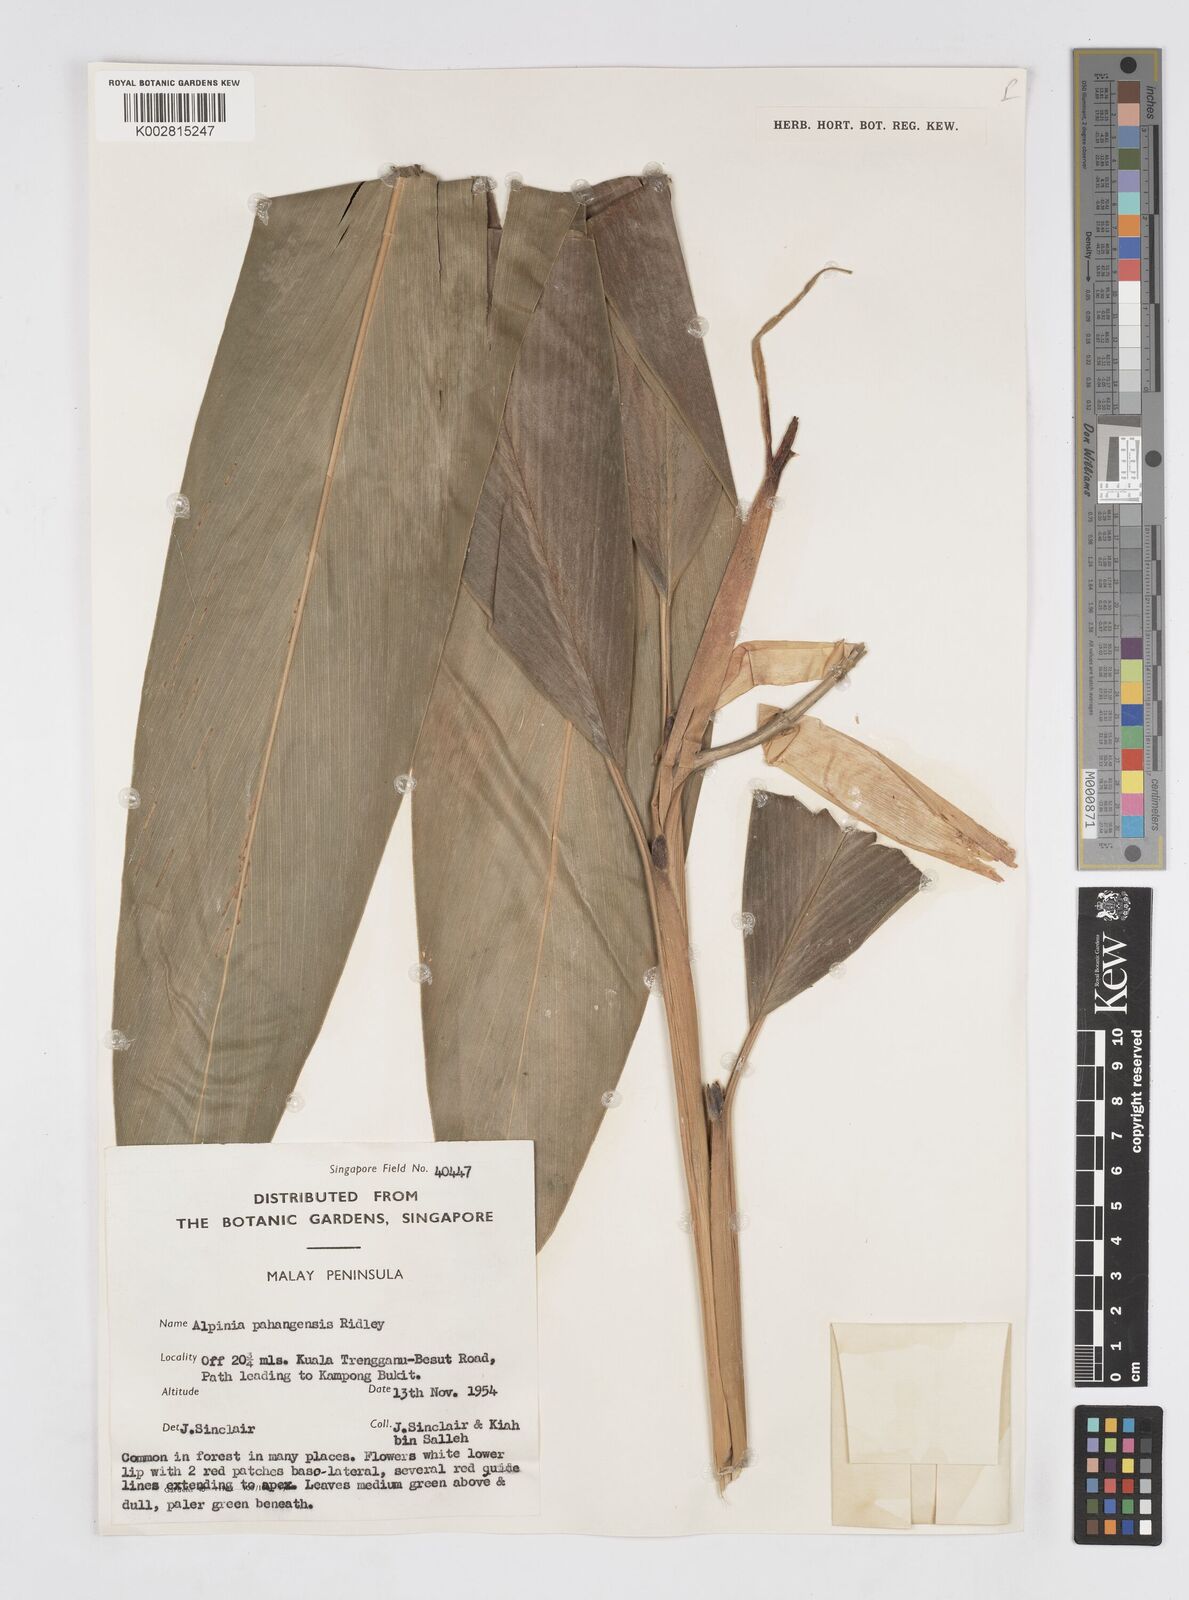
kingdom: Plantae
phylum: Tracheophyta
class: Liliopsida
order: Zingiberales
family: Zingiberaceae
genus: Alpinia
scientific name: Alpinia pahangensis
